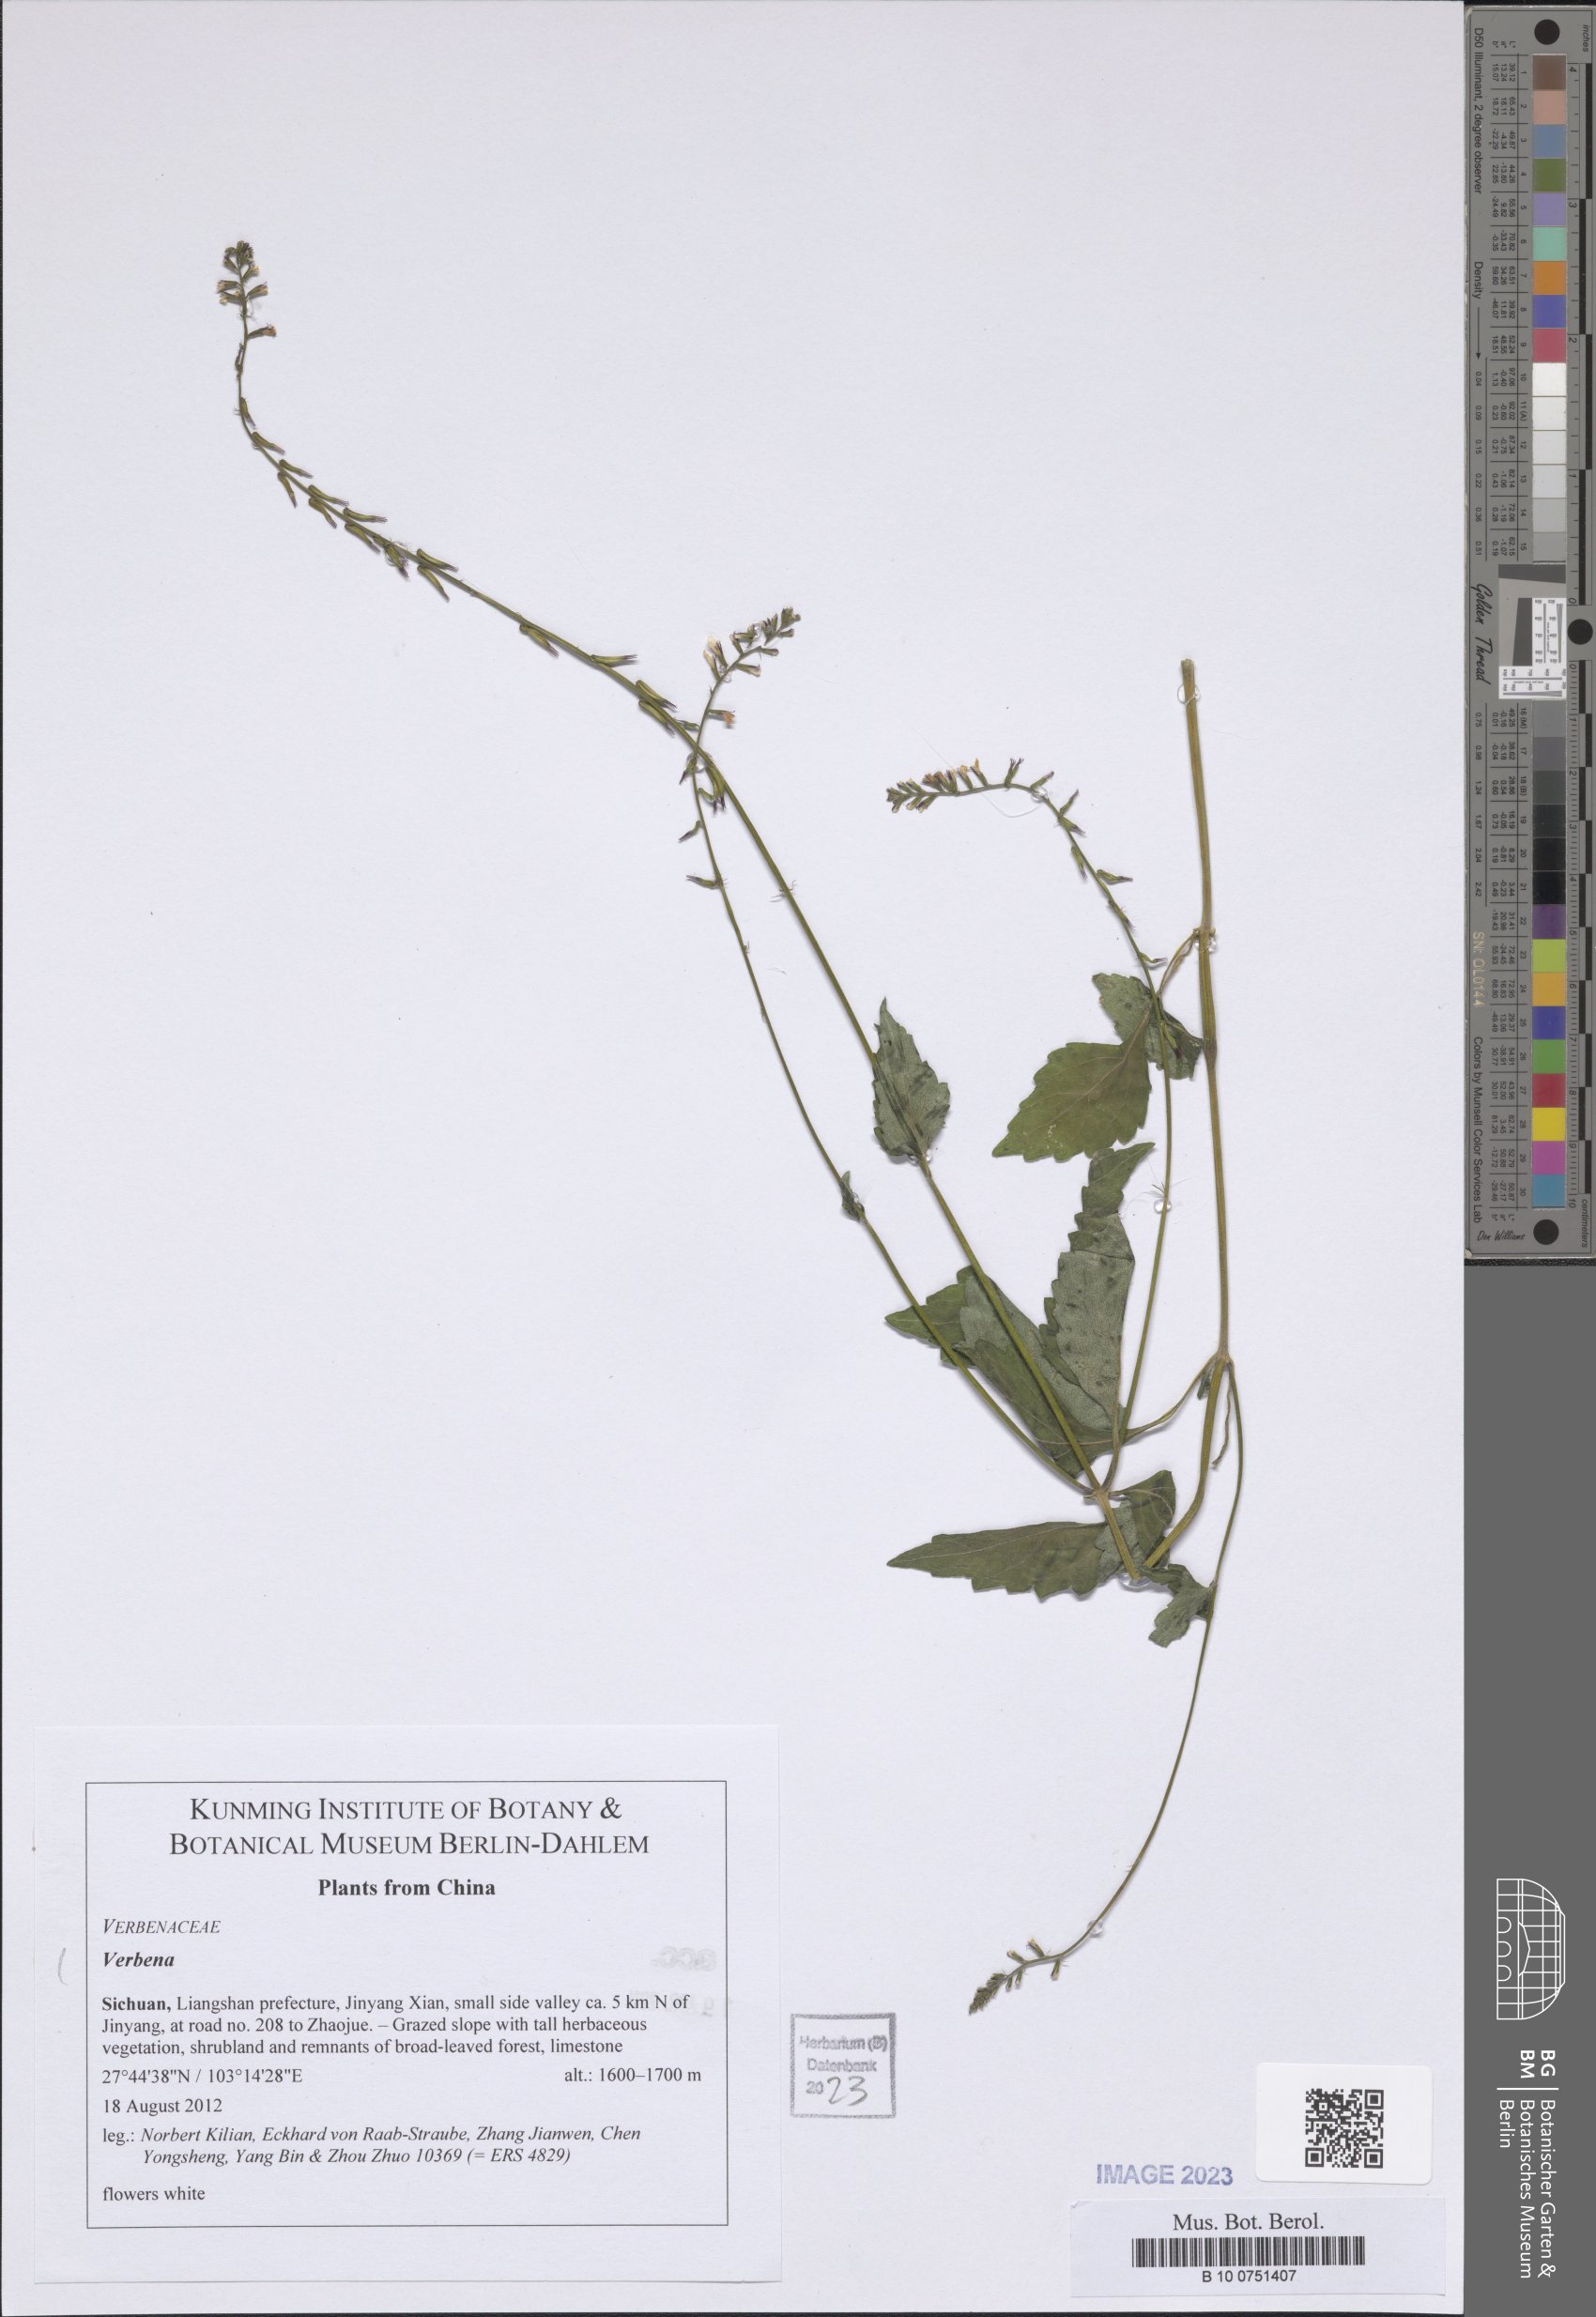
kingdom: Plantae
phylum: Tracheophyta
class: Magnoliopsida
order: Lamiales
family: Verbenaceae
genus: Verbena
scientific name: Verbena
